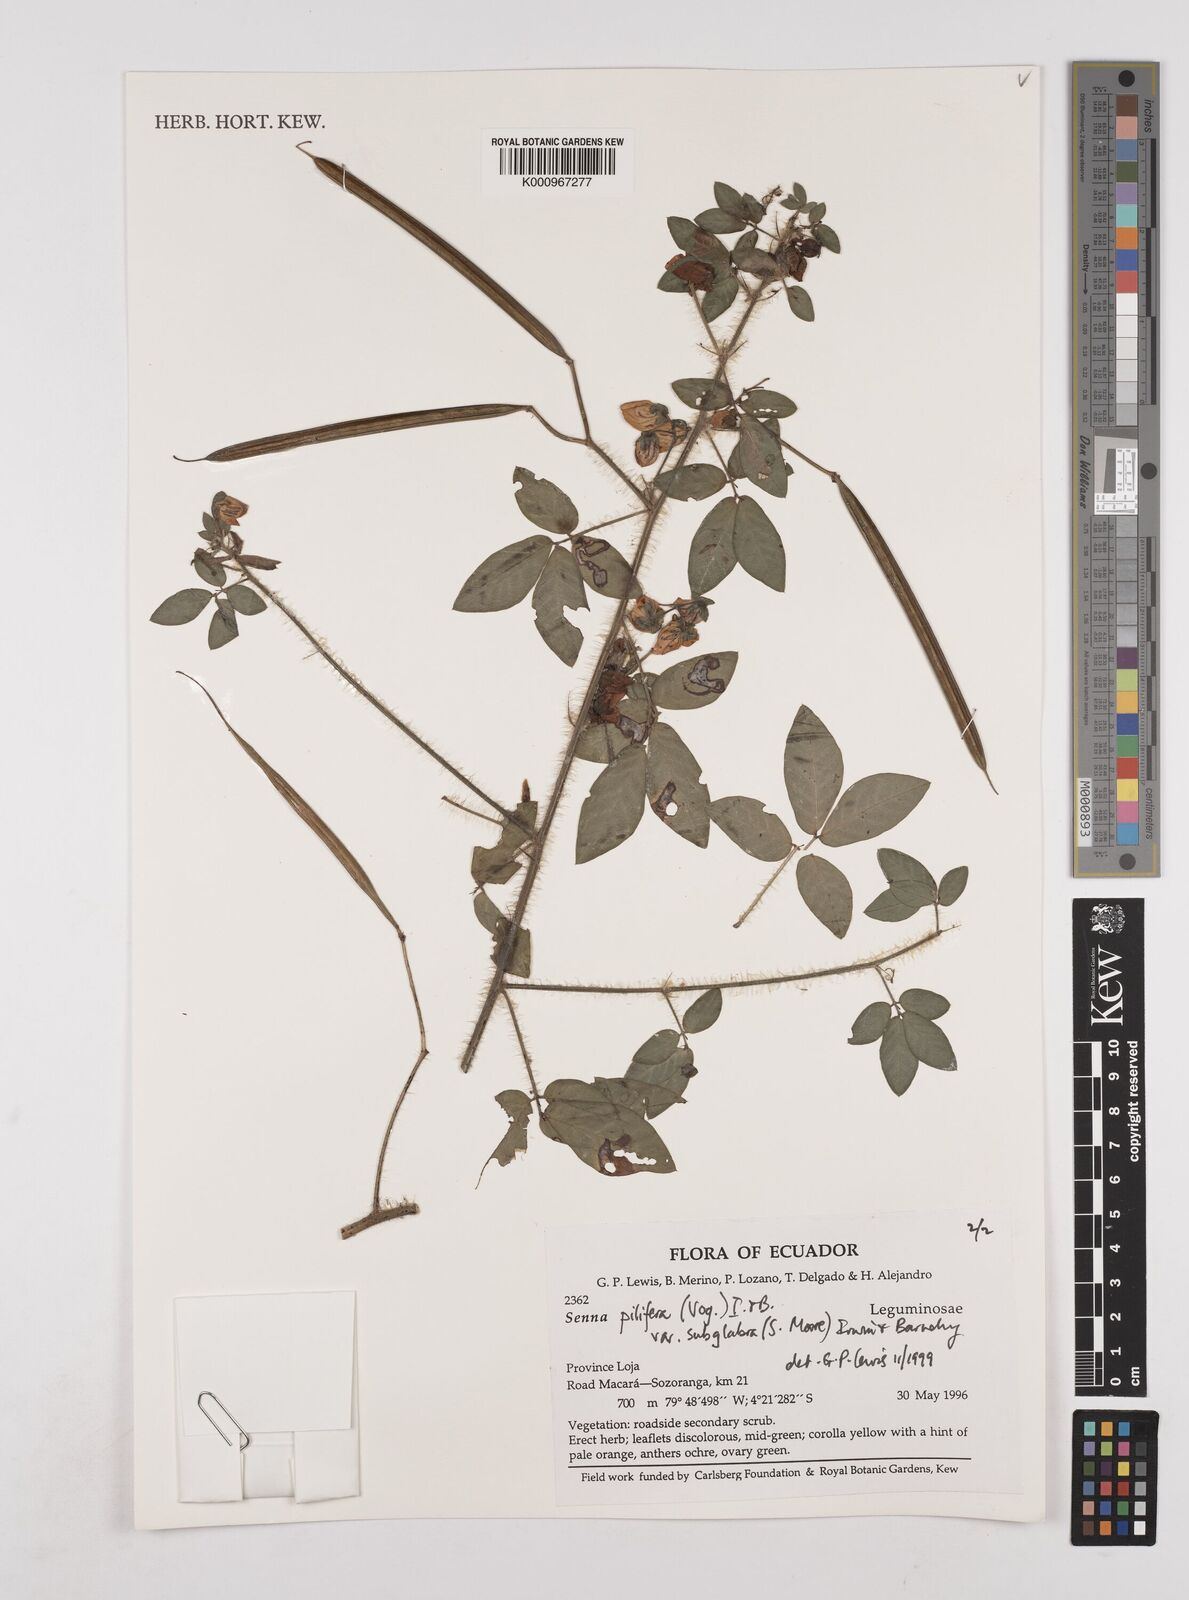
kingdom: Plantae
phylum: Tracheophyta
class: Magnoliopsida
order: Fabales
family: Fabaceae
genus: Senna
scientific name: Senna pilifera
